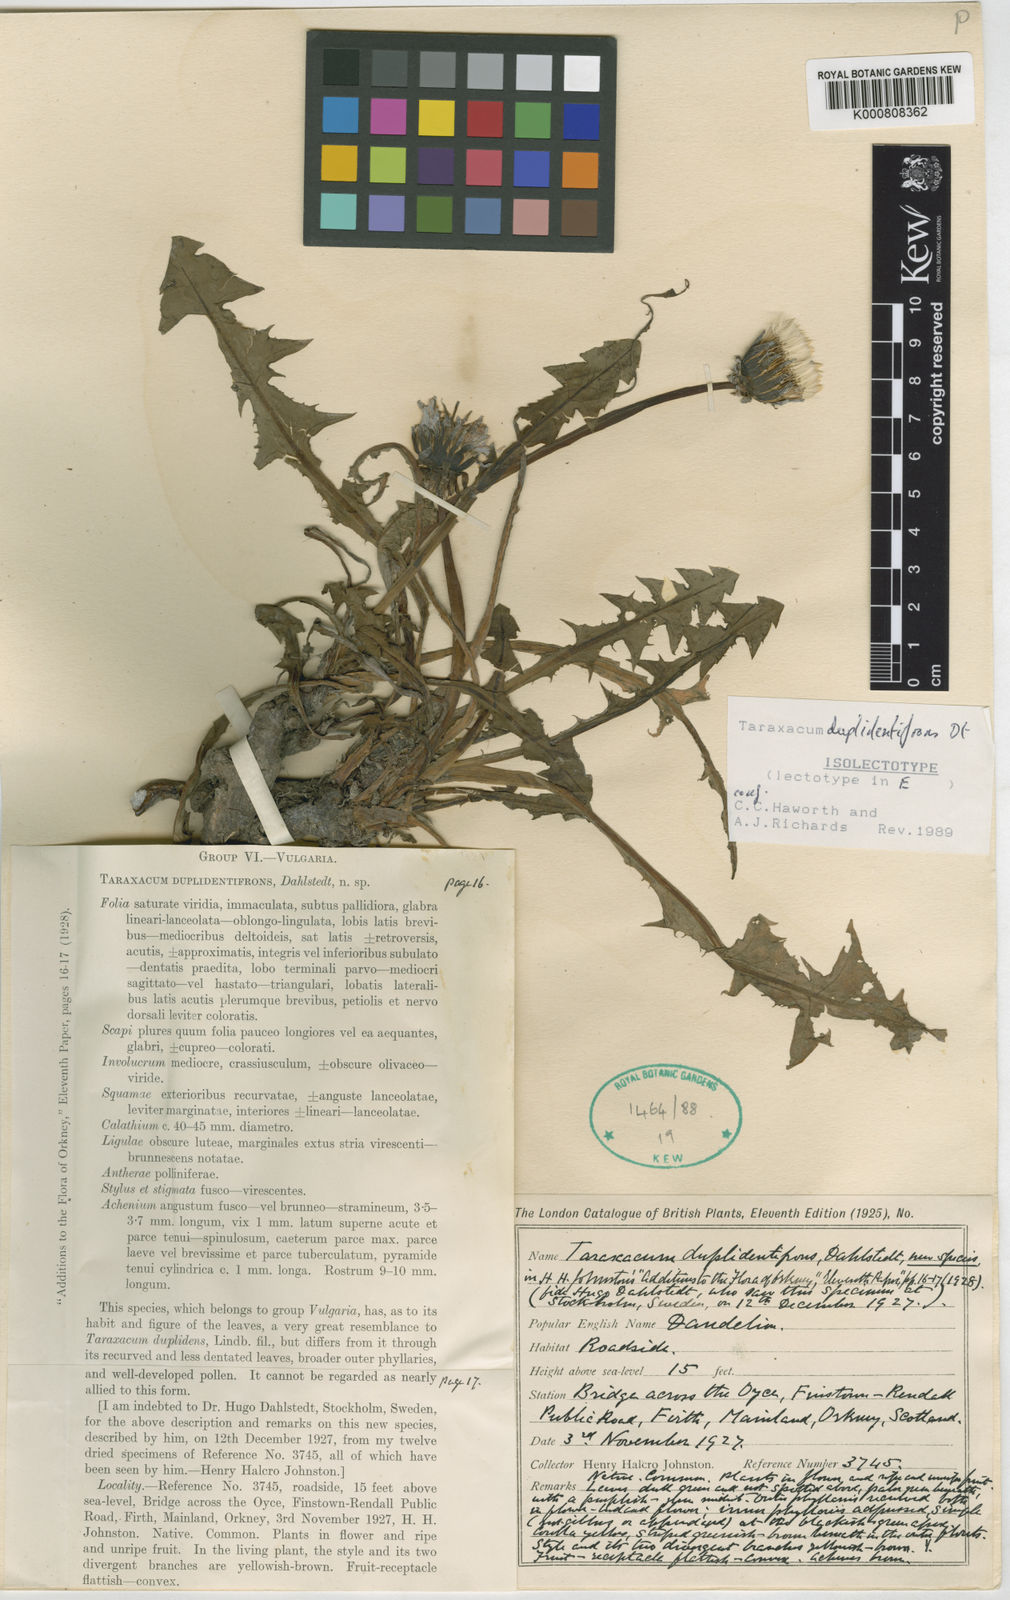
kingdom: Plantae
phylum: Tracheophyta
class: Magnoliopsida
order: Asterales
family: Asteraceae
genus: Taraxacum
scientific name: Taraxacum duplidentifrons
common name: Double-toothed dandelion
